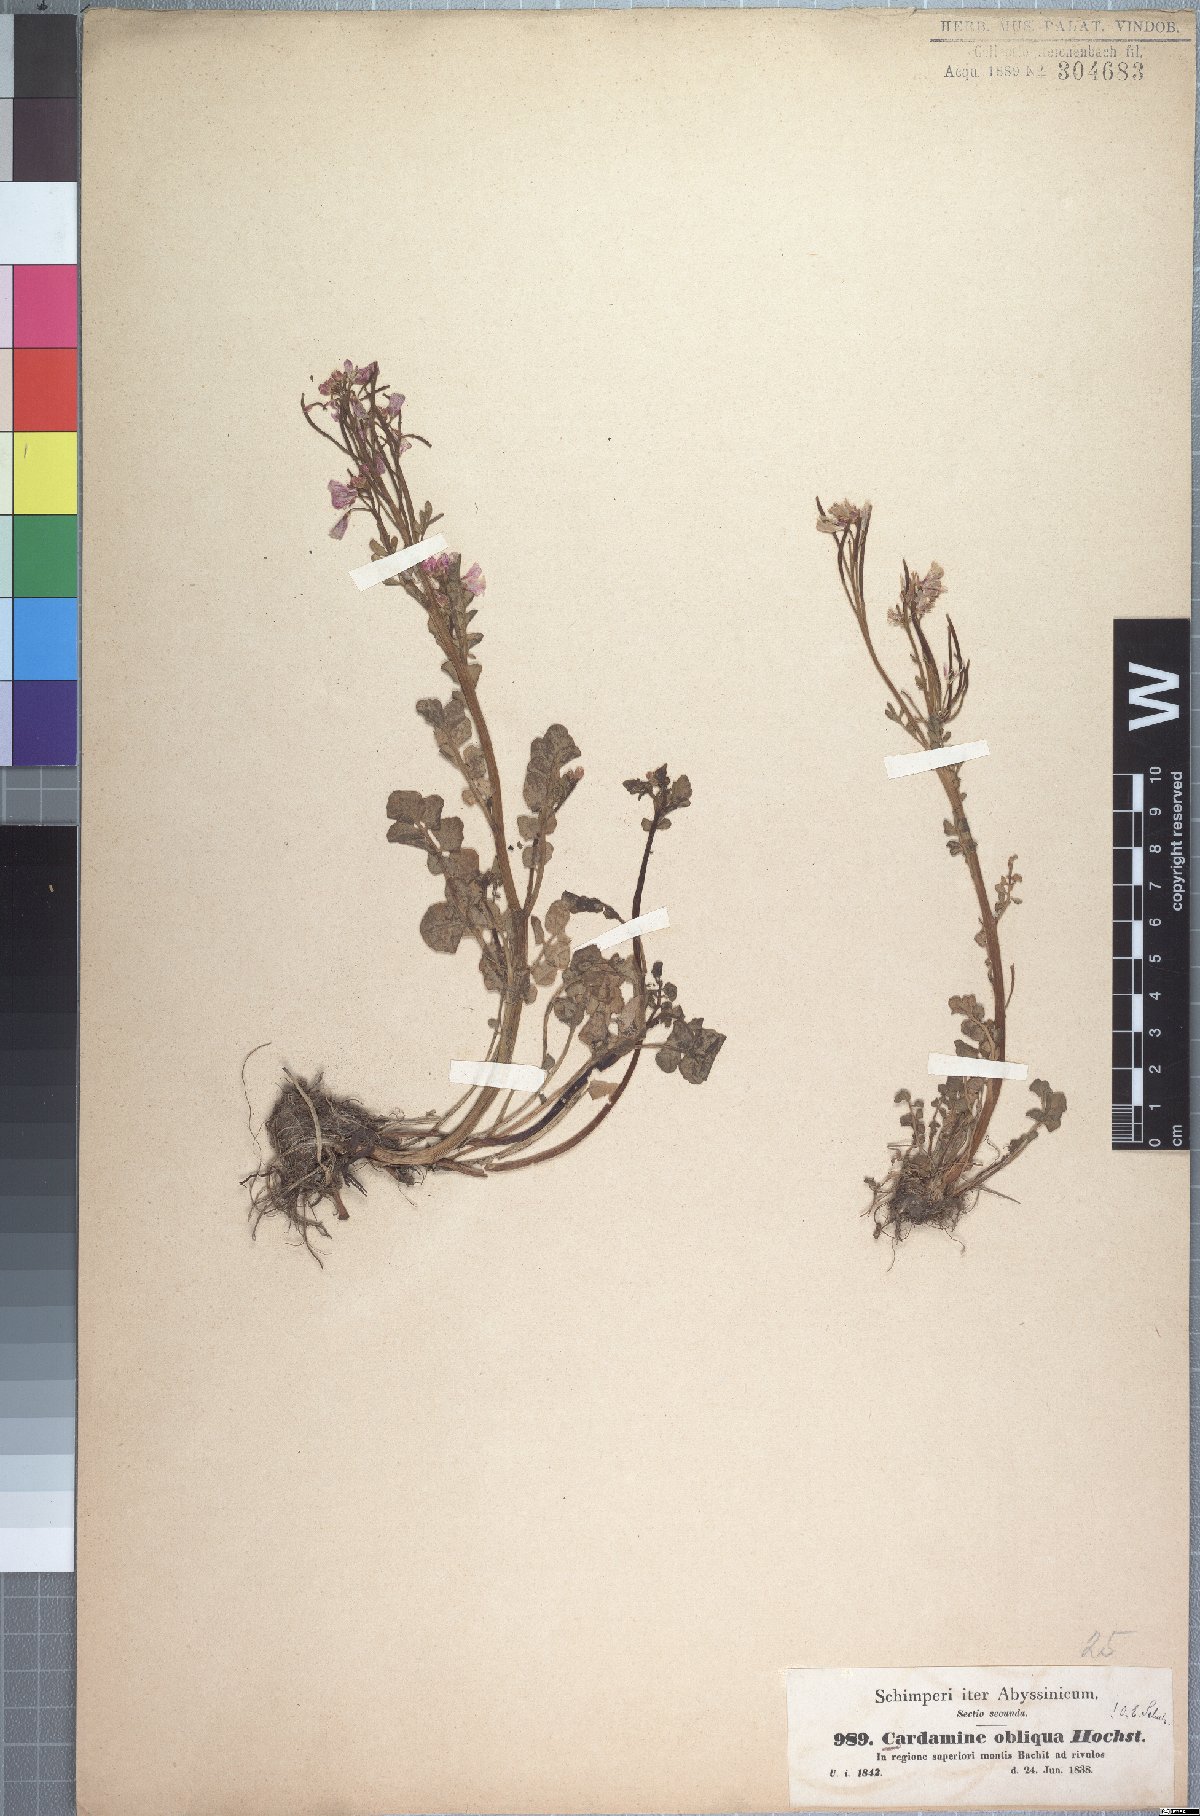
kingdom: Plantae
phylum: Tracheophyta
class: Magnoliopsida
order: Brassicales
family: Brassicaceae
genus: Cardamine
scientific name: Cardamine obliqua
